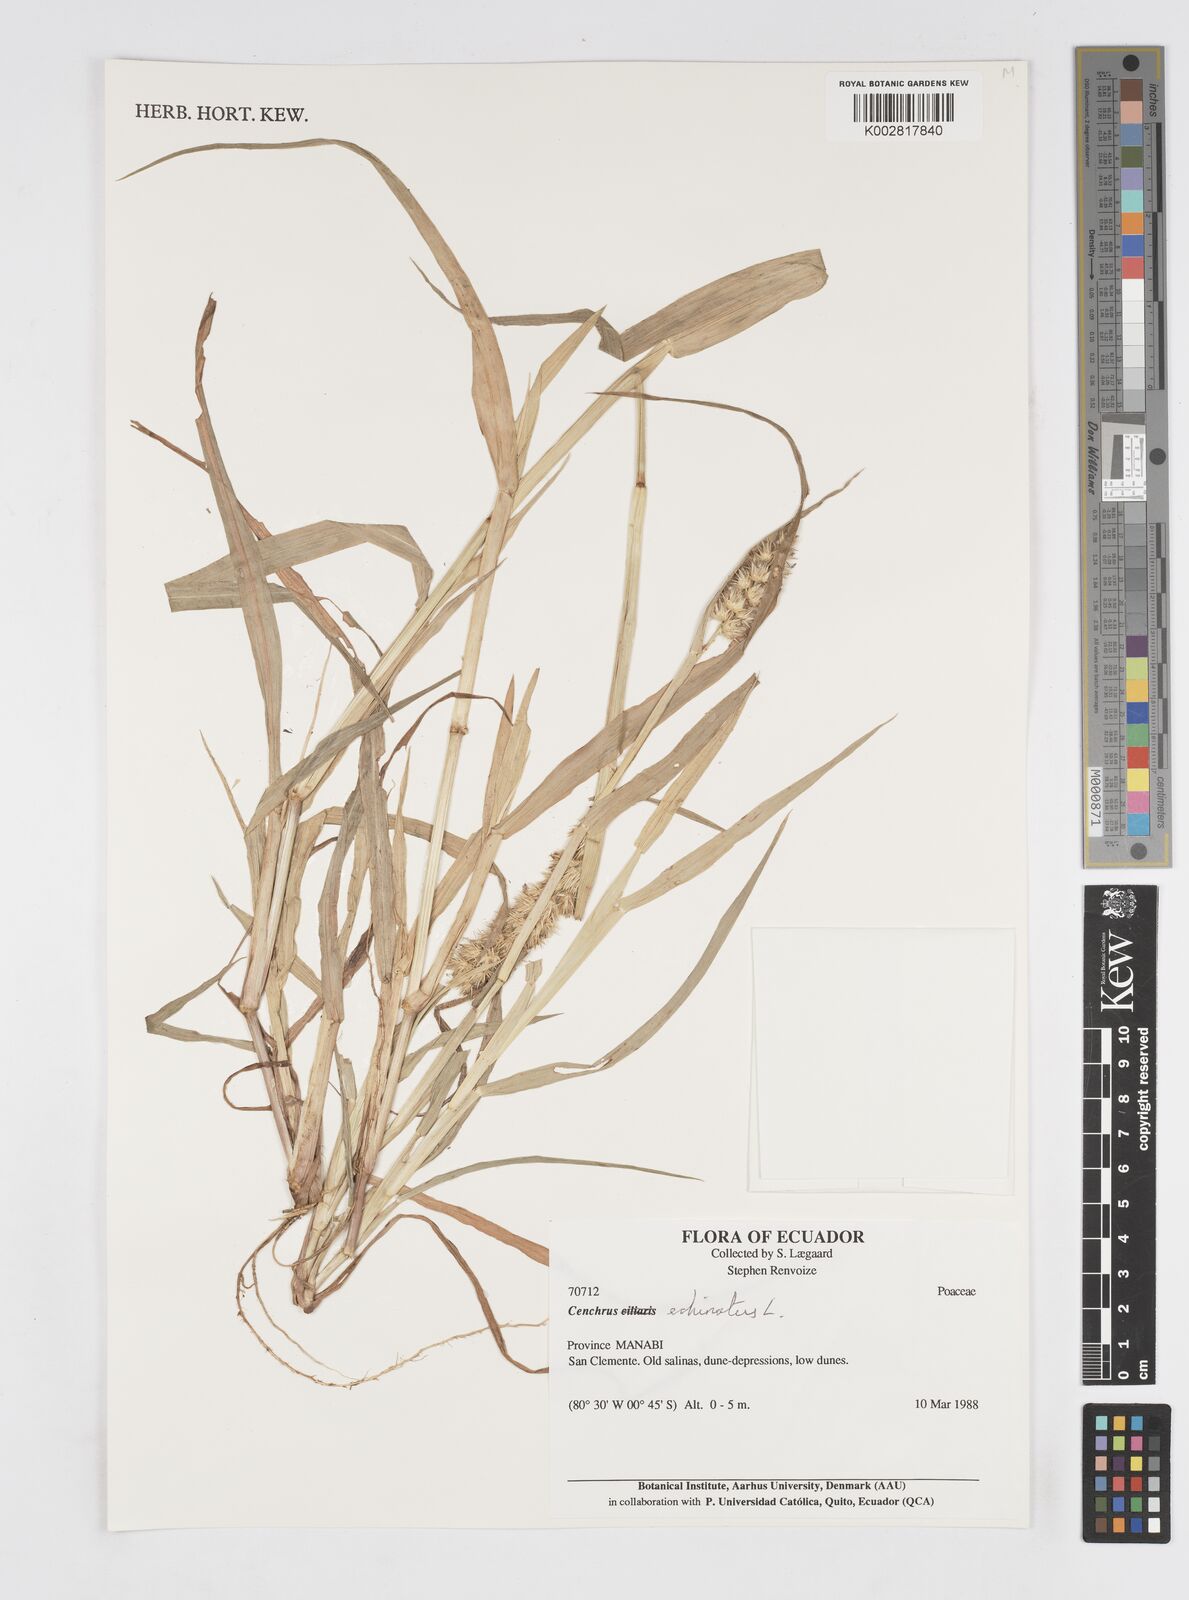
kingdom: Plantae
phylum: Tracheophyta
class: Liliopsida
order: Poales
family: Poaceae
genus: Cenchrus
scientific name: Cenchrus
